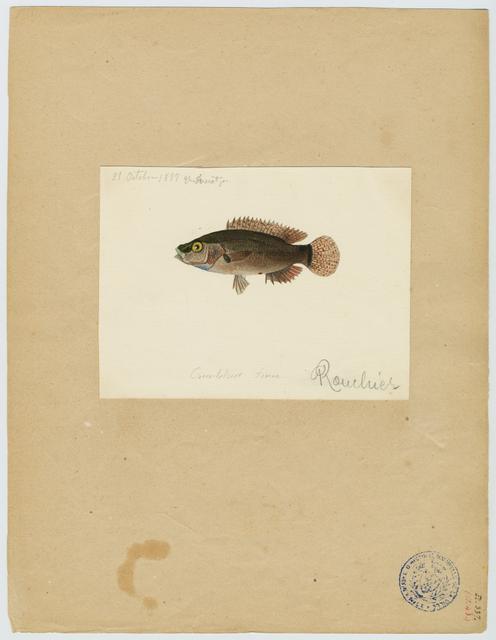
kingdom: Animalia
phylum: Chordata
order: Perciformes
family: Labridae
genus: Symphodus
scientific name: Symphodus mediterraneus
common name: Axillary wrasse
